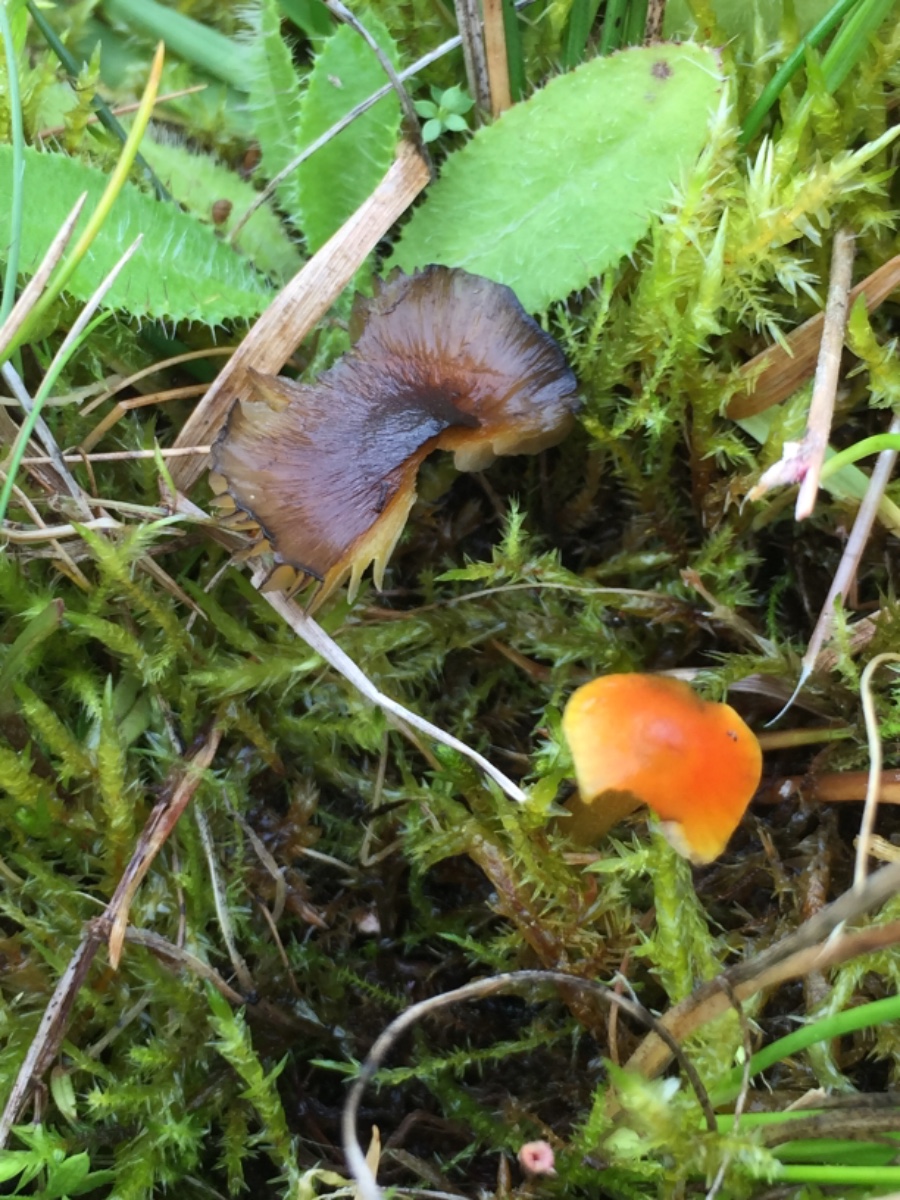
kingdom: Fungi
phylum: Basidiomycota
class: Agaricomycetes
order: Agaricales
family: Hygrophoraceae
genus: Hygrocybe
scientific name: Hygrocybe conica
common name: kegle-vokshat
